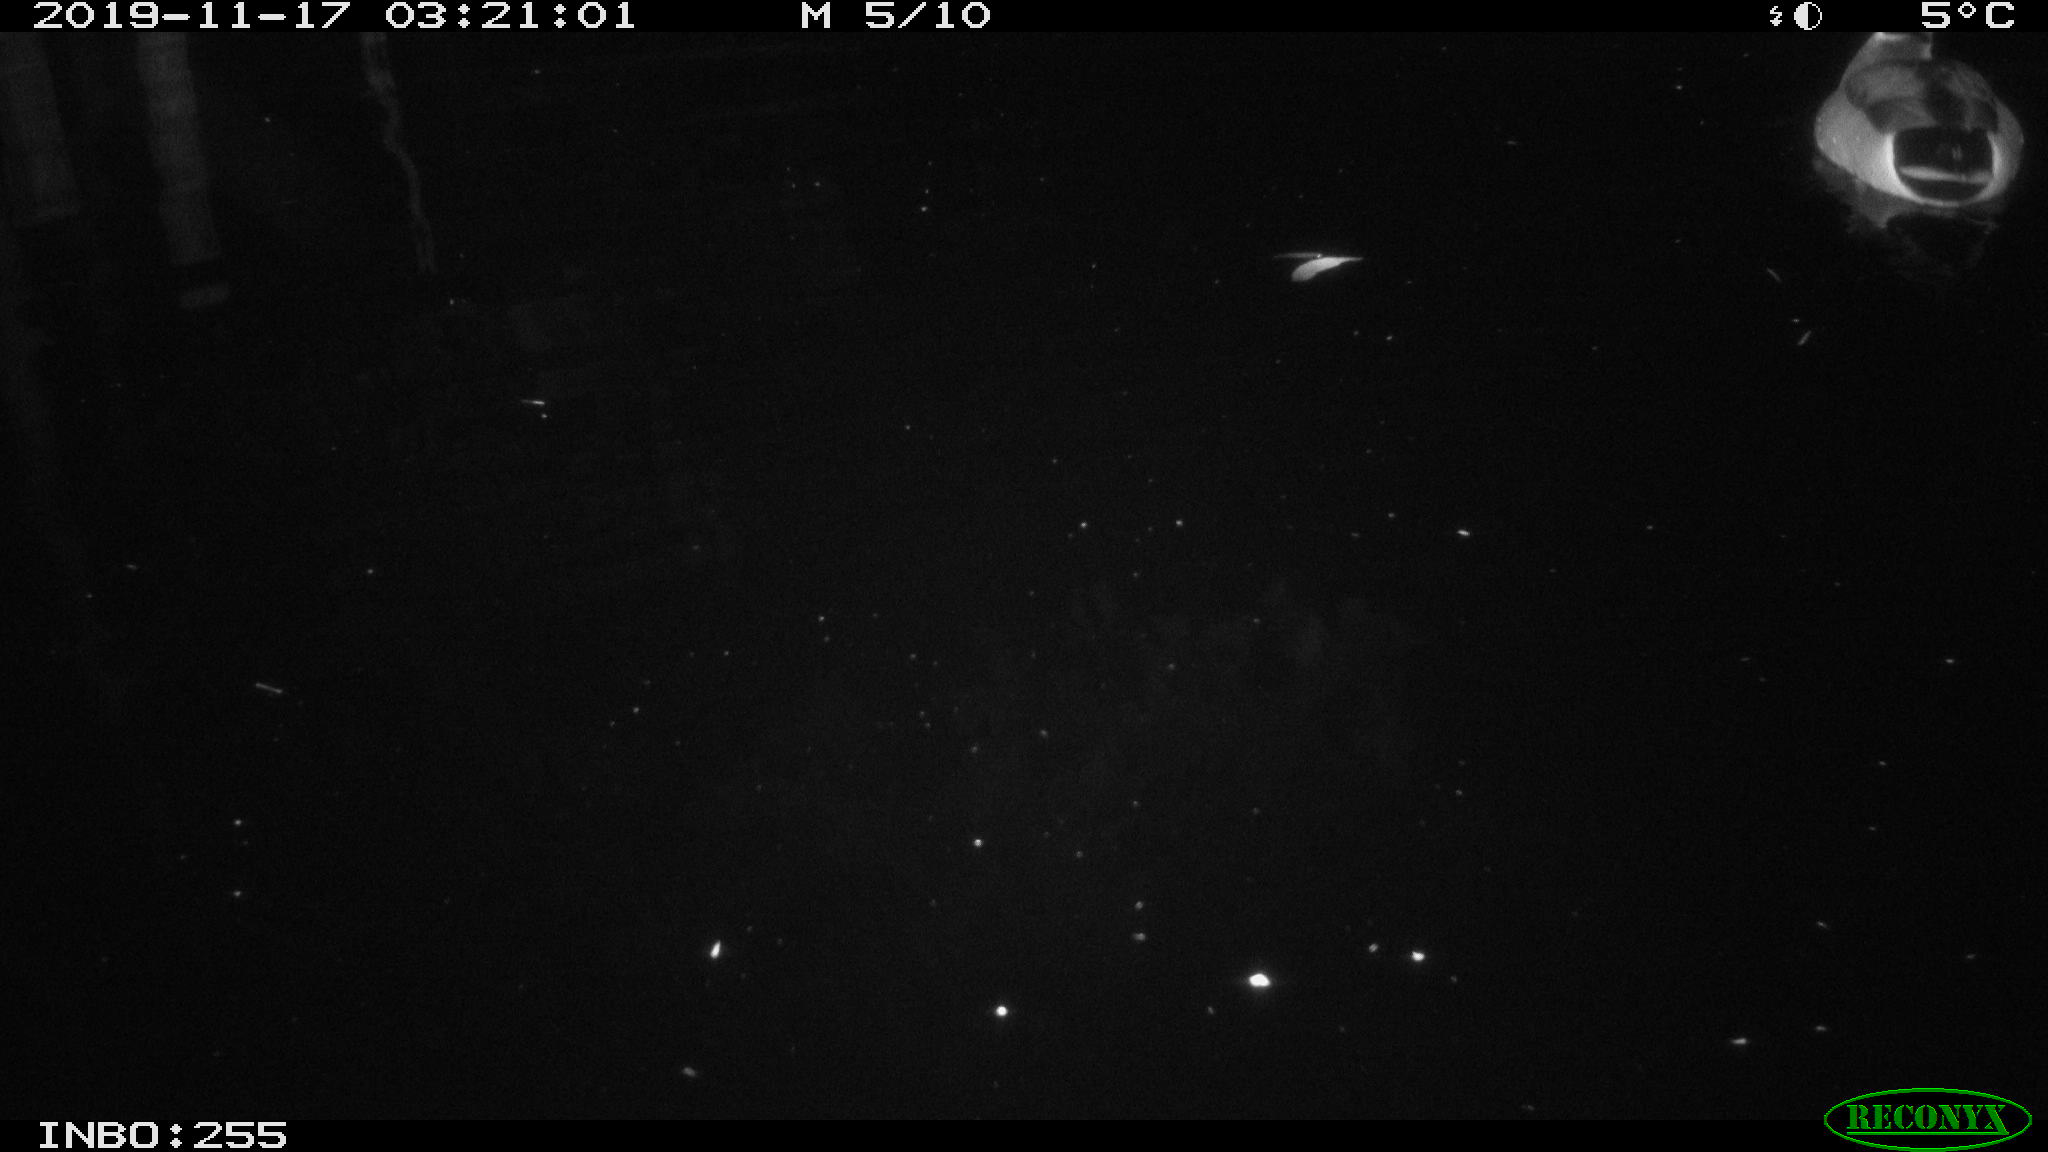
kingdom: Animalia
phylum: Chordata
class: Aves
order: Anseriformes
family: Anatidae
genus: Anas
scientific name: Anas platyrhynchos
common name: Mallard
